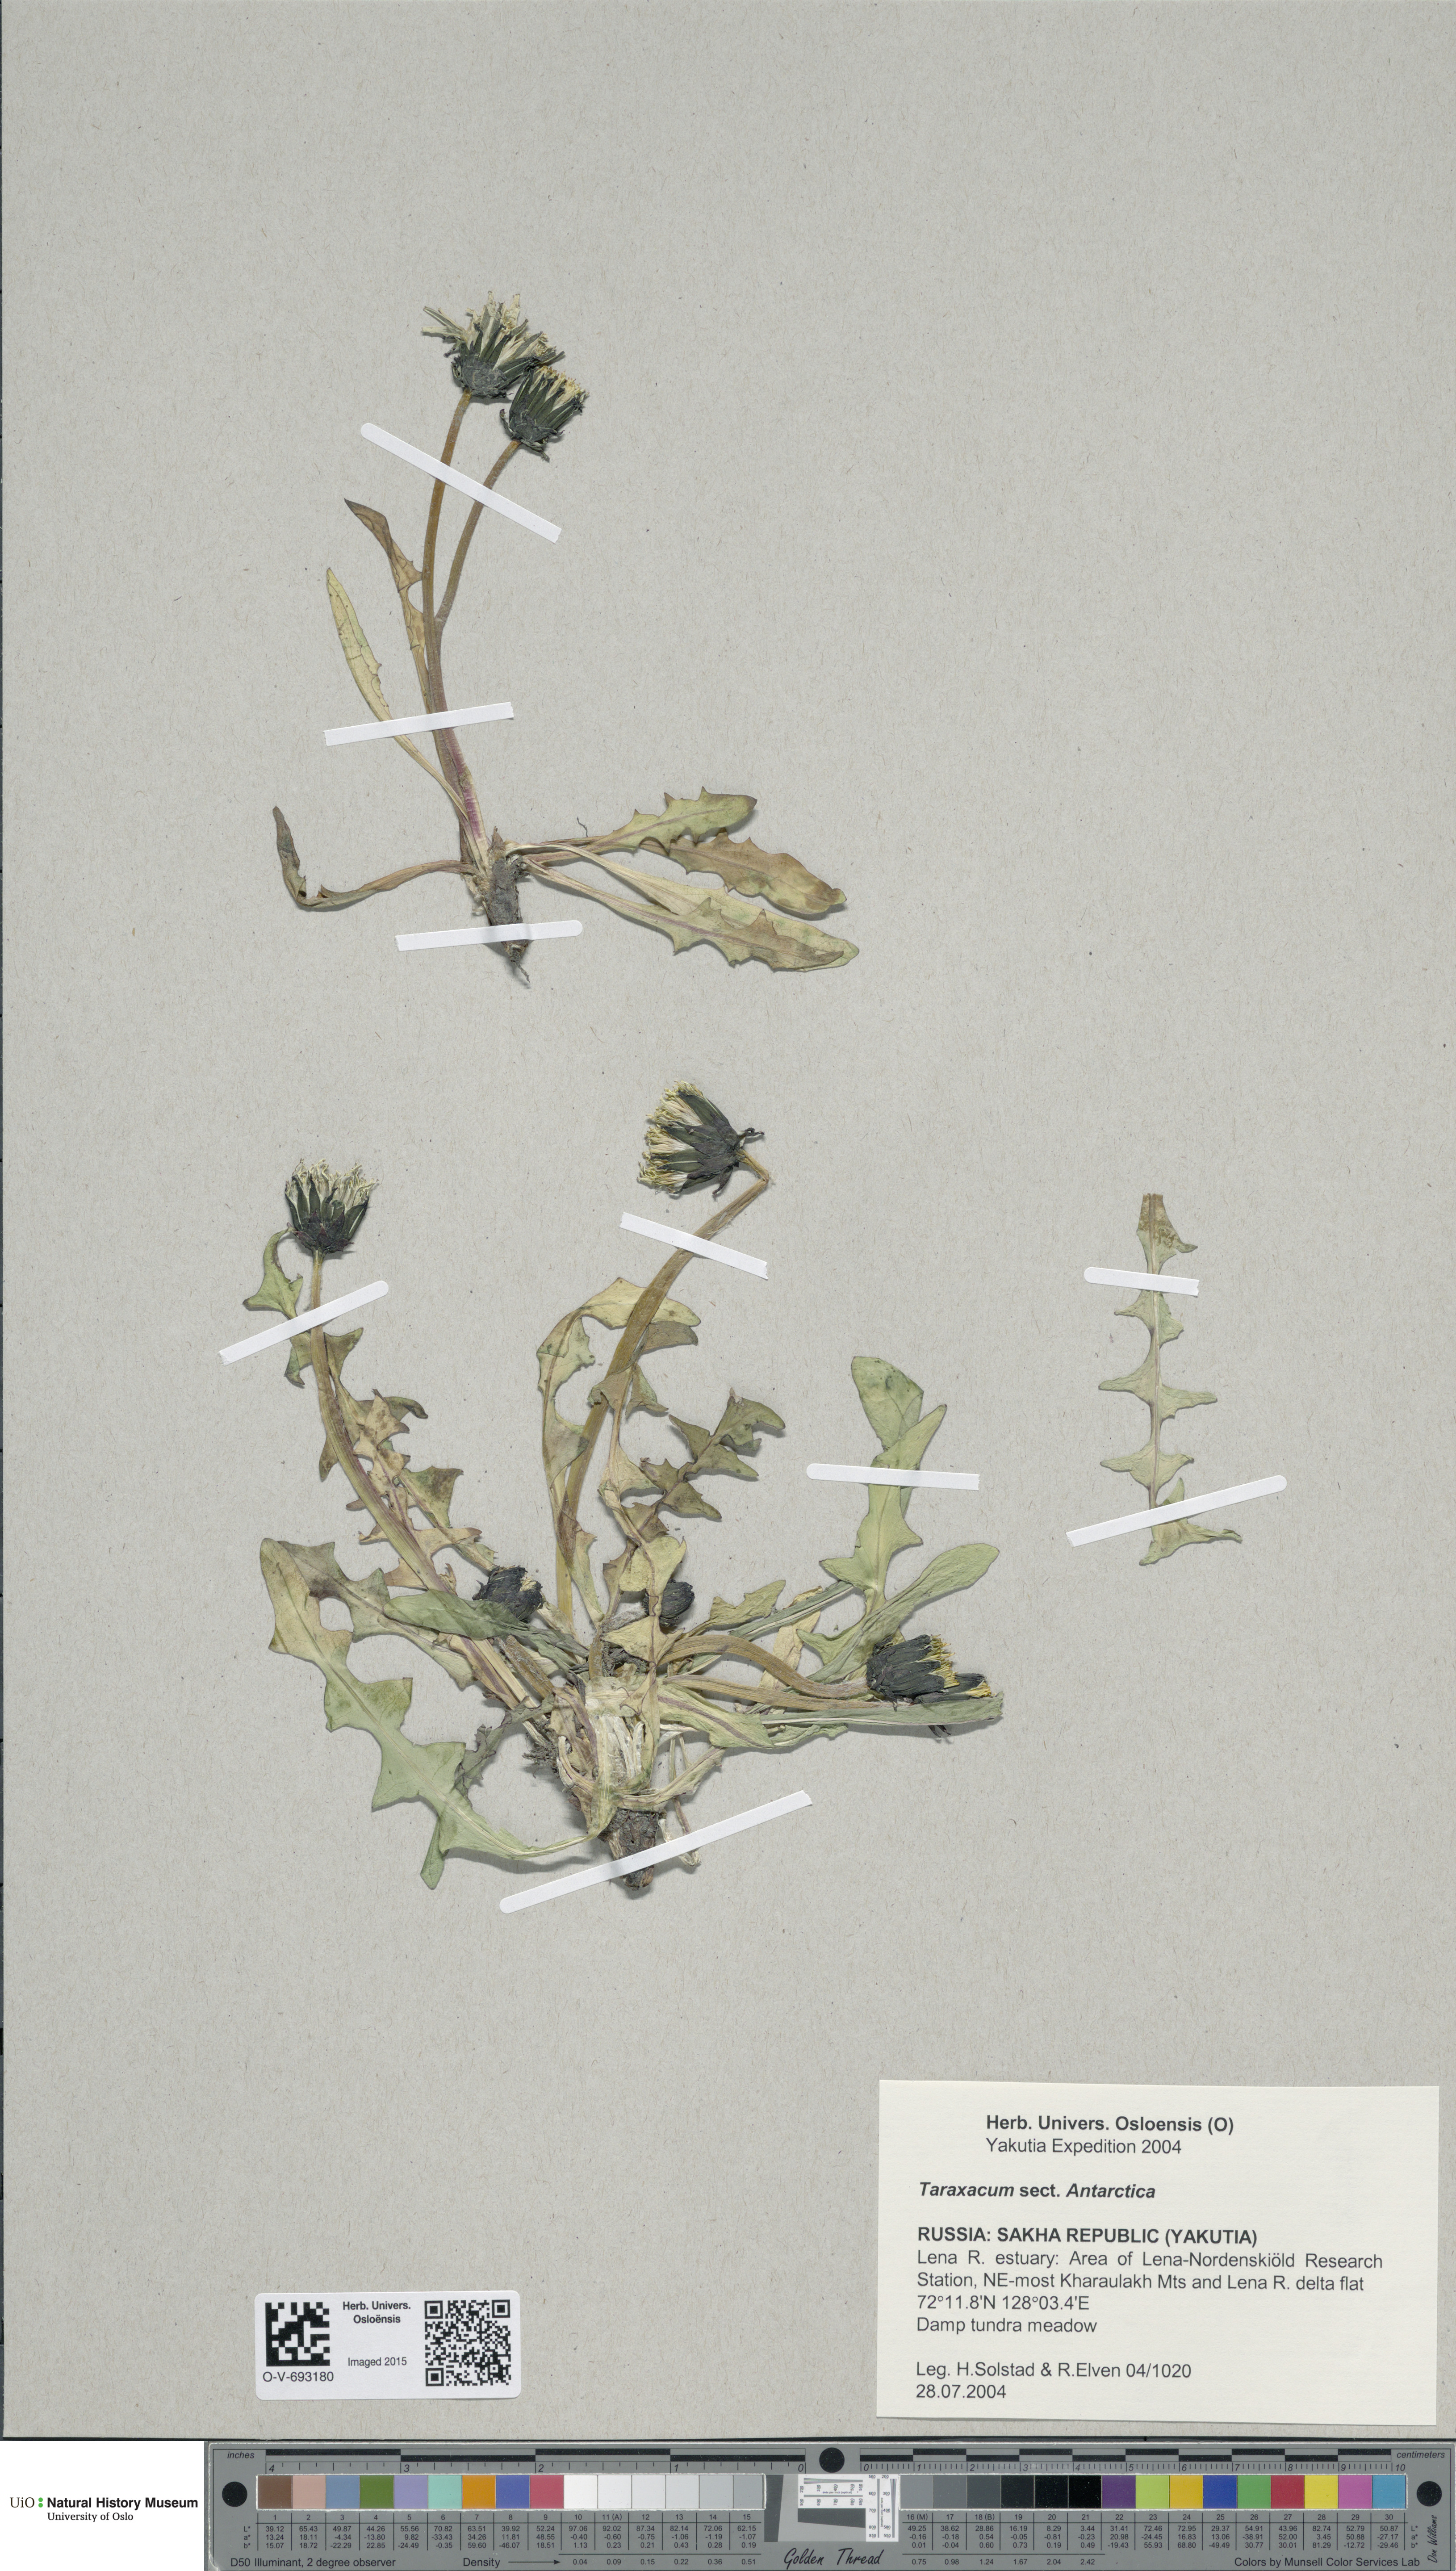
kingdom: Plantae
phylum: Tracheophyta
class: Magnoliopsida
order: Asterales
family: Asteraceae
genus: Taraxacum
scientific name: Taraxacum
